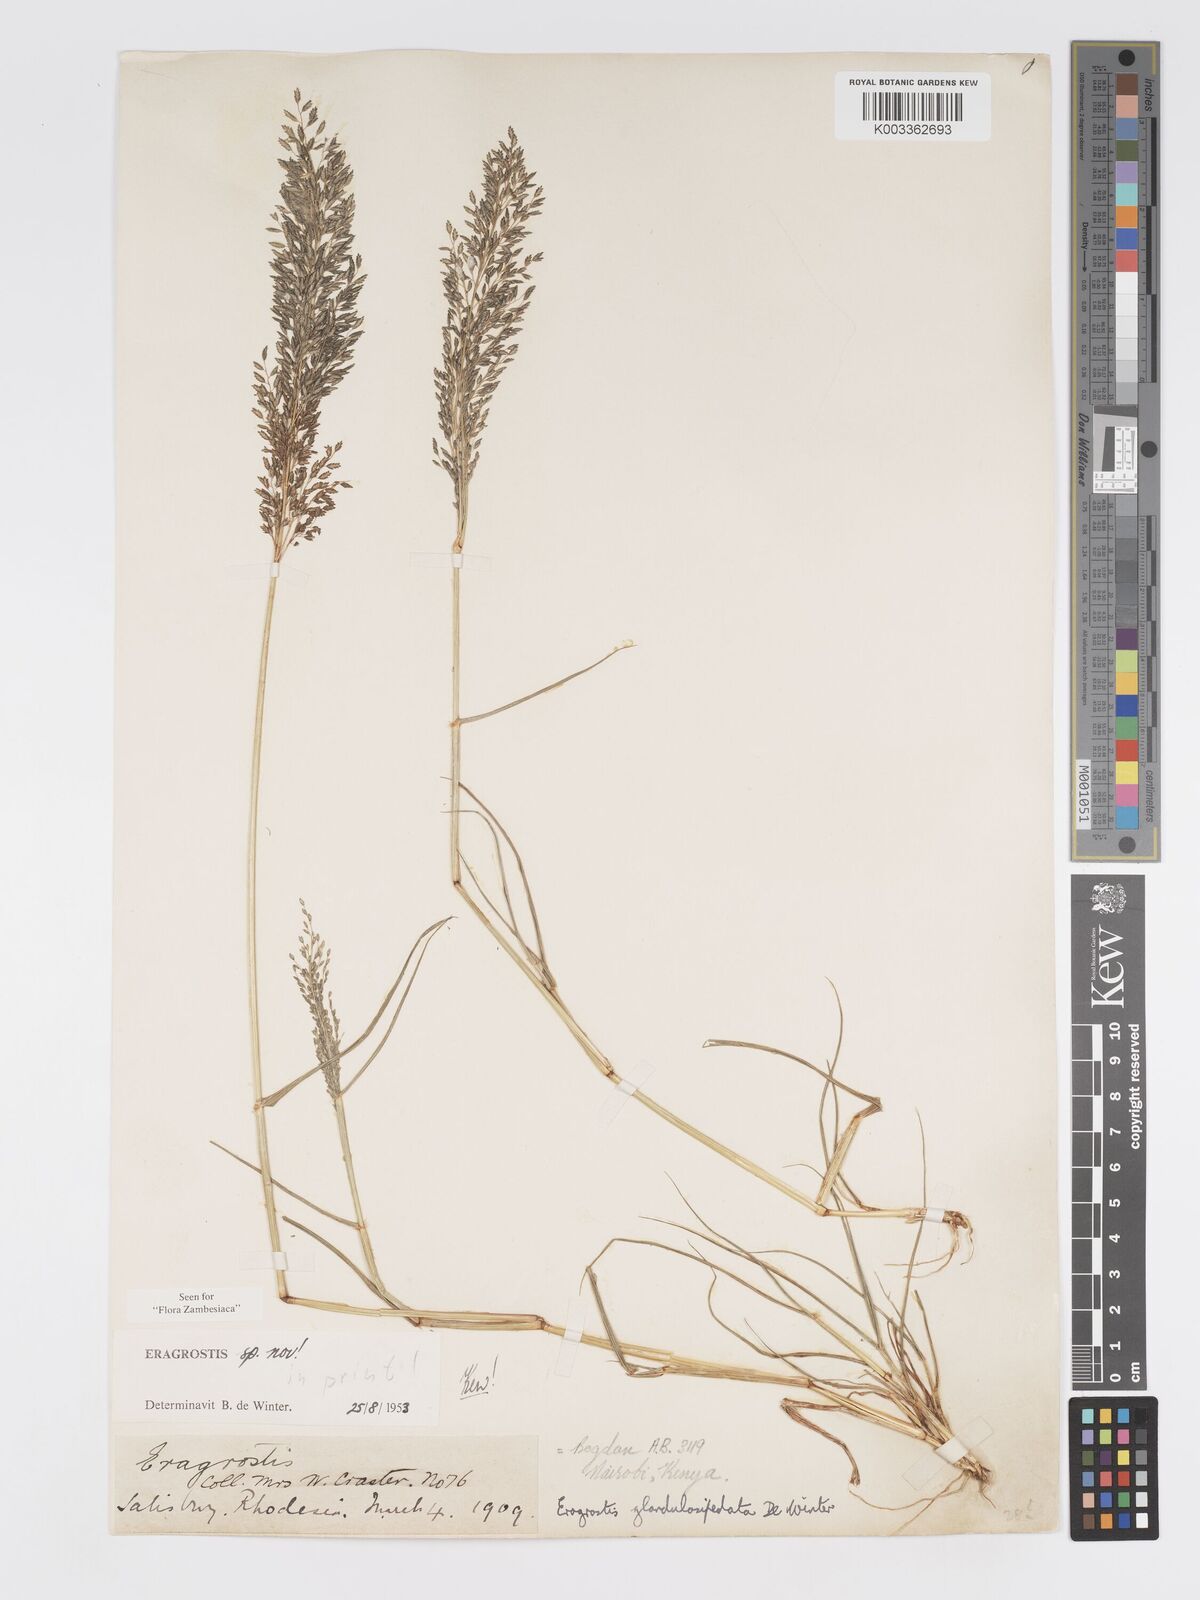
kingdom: Plantae
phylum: Tracheophyta
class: Liliopsida
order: Poales
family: Poaceae
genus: Eragrostis
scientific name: Eragrostis glandulosipedata
